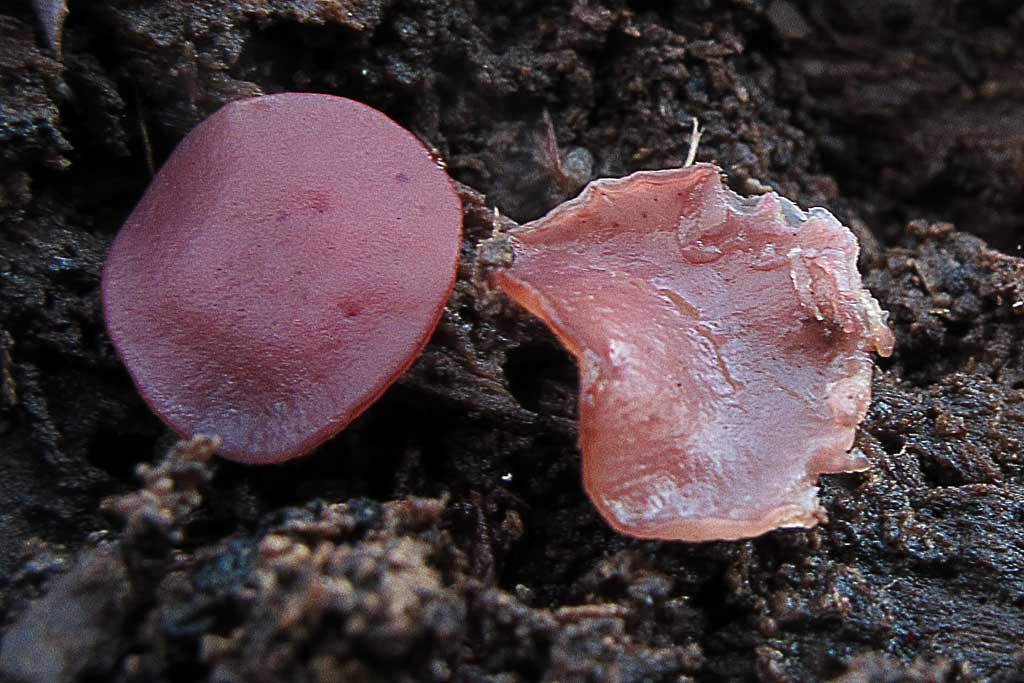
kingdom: Fungi
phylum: Ascomycota
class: Leotiomycetes
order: Helotiales
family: Gelatinodiscaceae
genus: Ascocoryne
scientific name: Ascocoryne cylichnium
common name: stor sejskive
